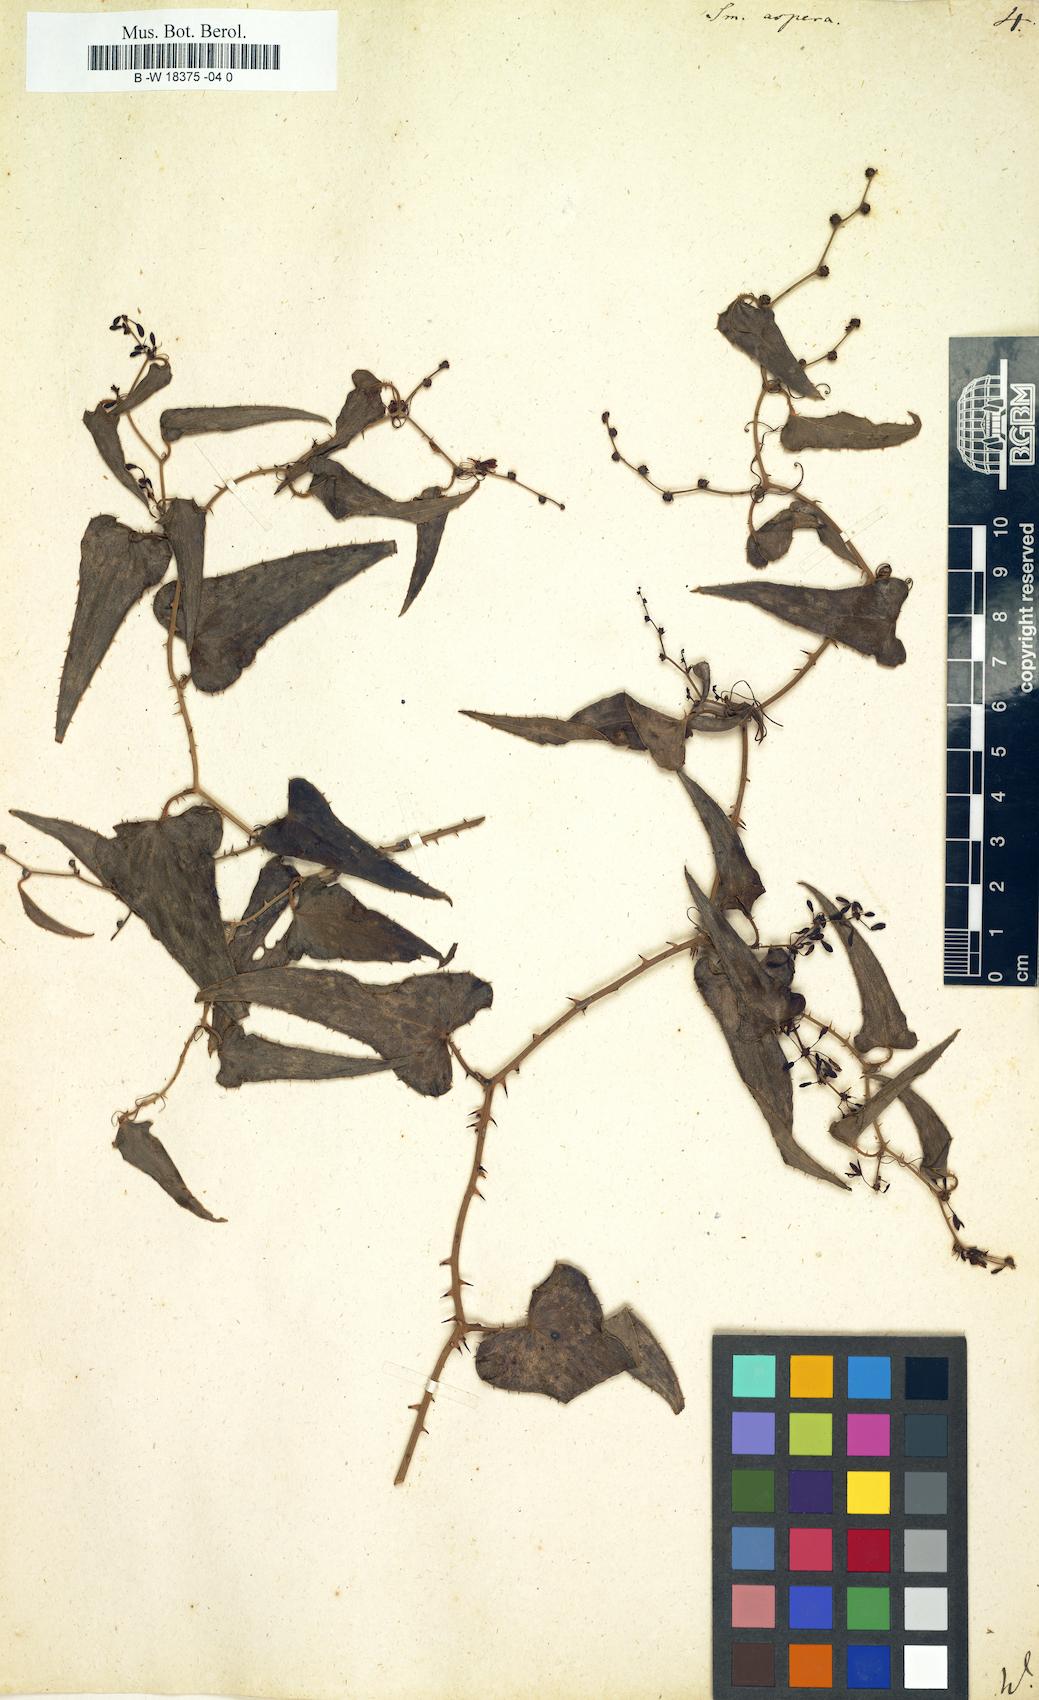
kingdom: Plantae
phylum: Tracheophyta
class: Liliopsida
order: Liliales
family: Smilacaceae
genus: Smilax
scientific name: Smilax aspera
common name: Common smilax
